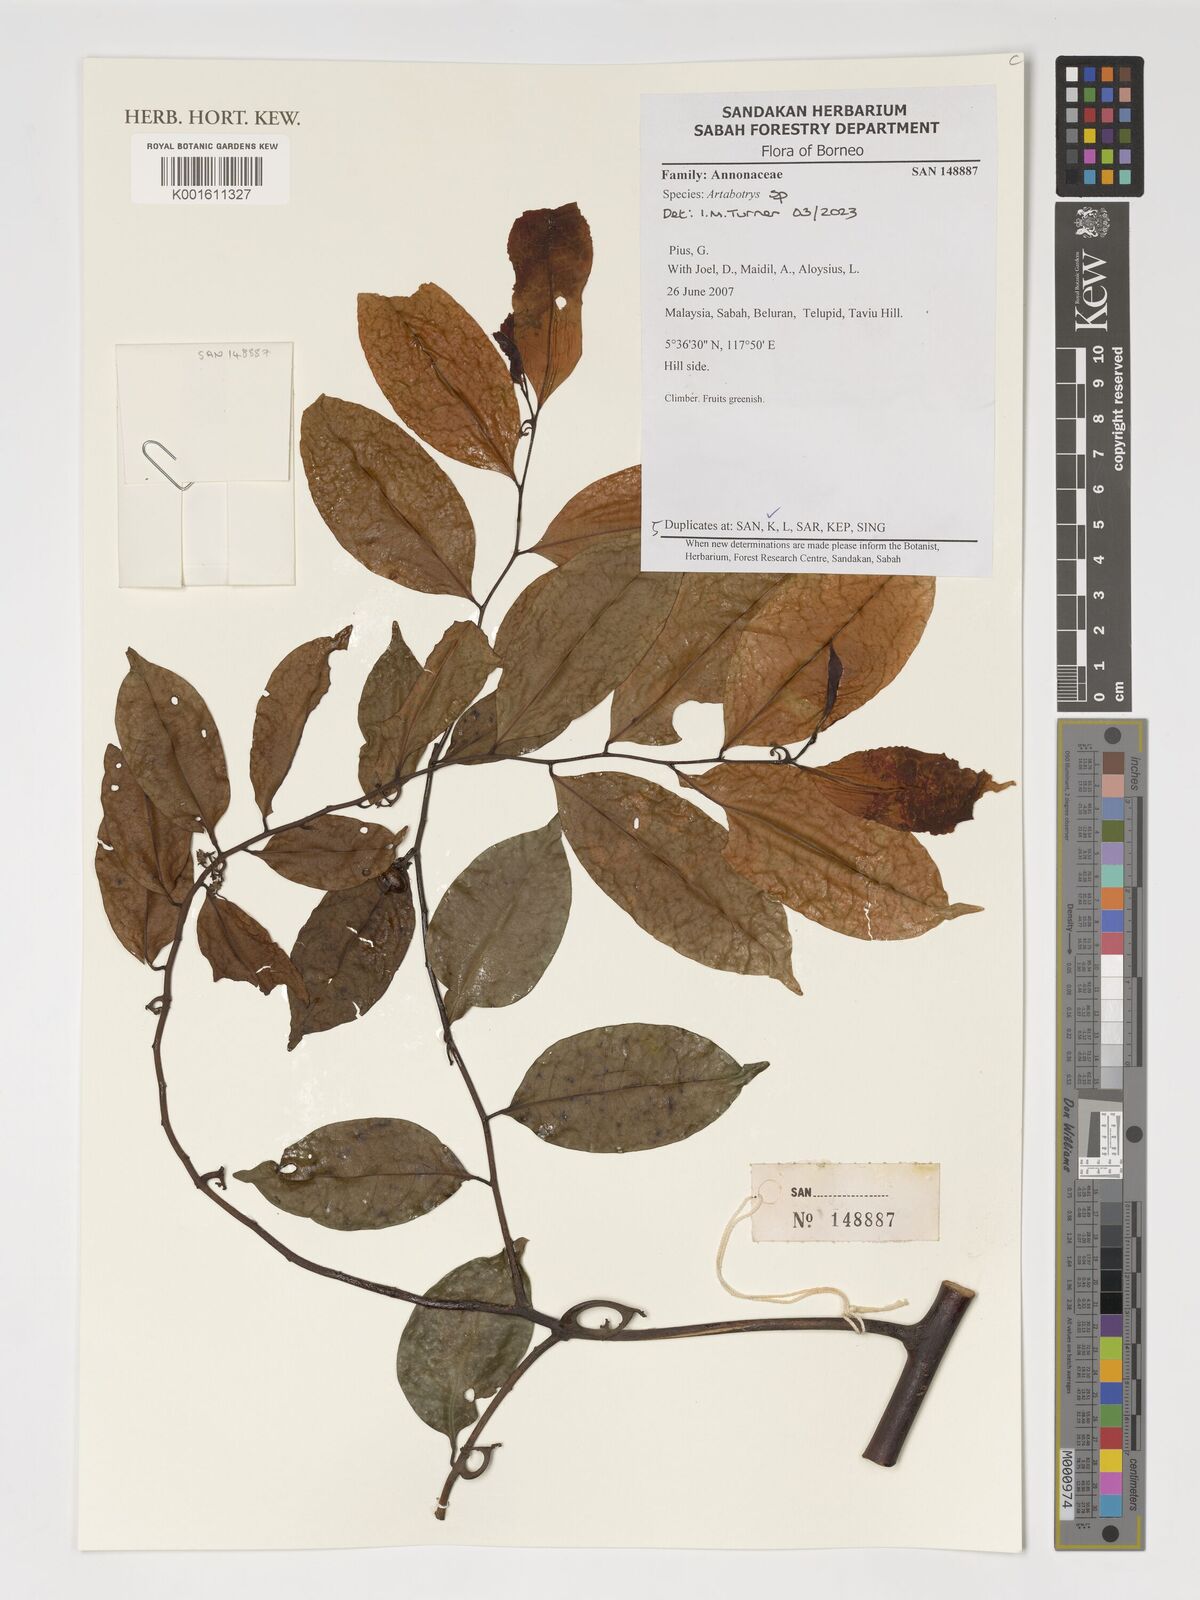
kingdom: Plantae
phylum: Tracheophyta
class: Magnoliopsida
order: Magnoliales
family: Annonaceae
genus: Artabotrys
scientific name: Artabotrys
